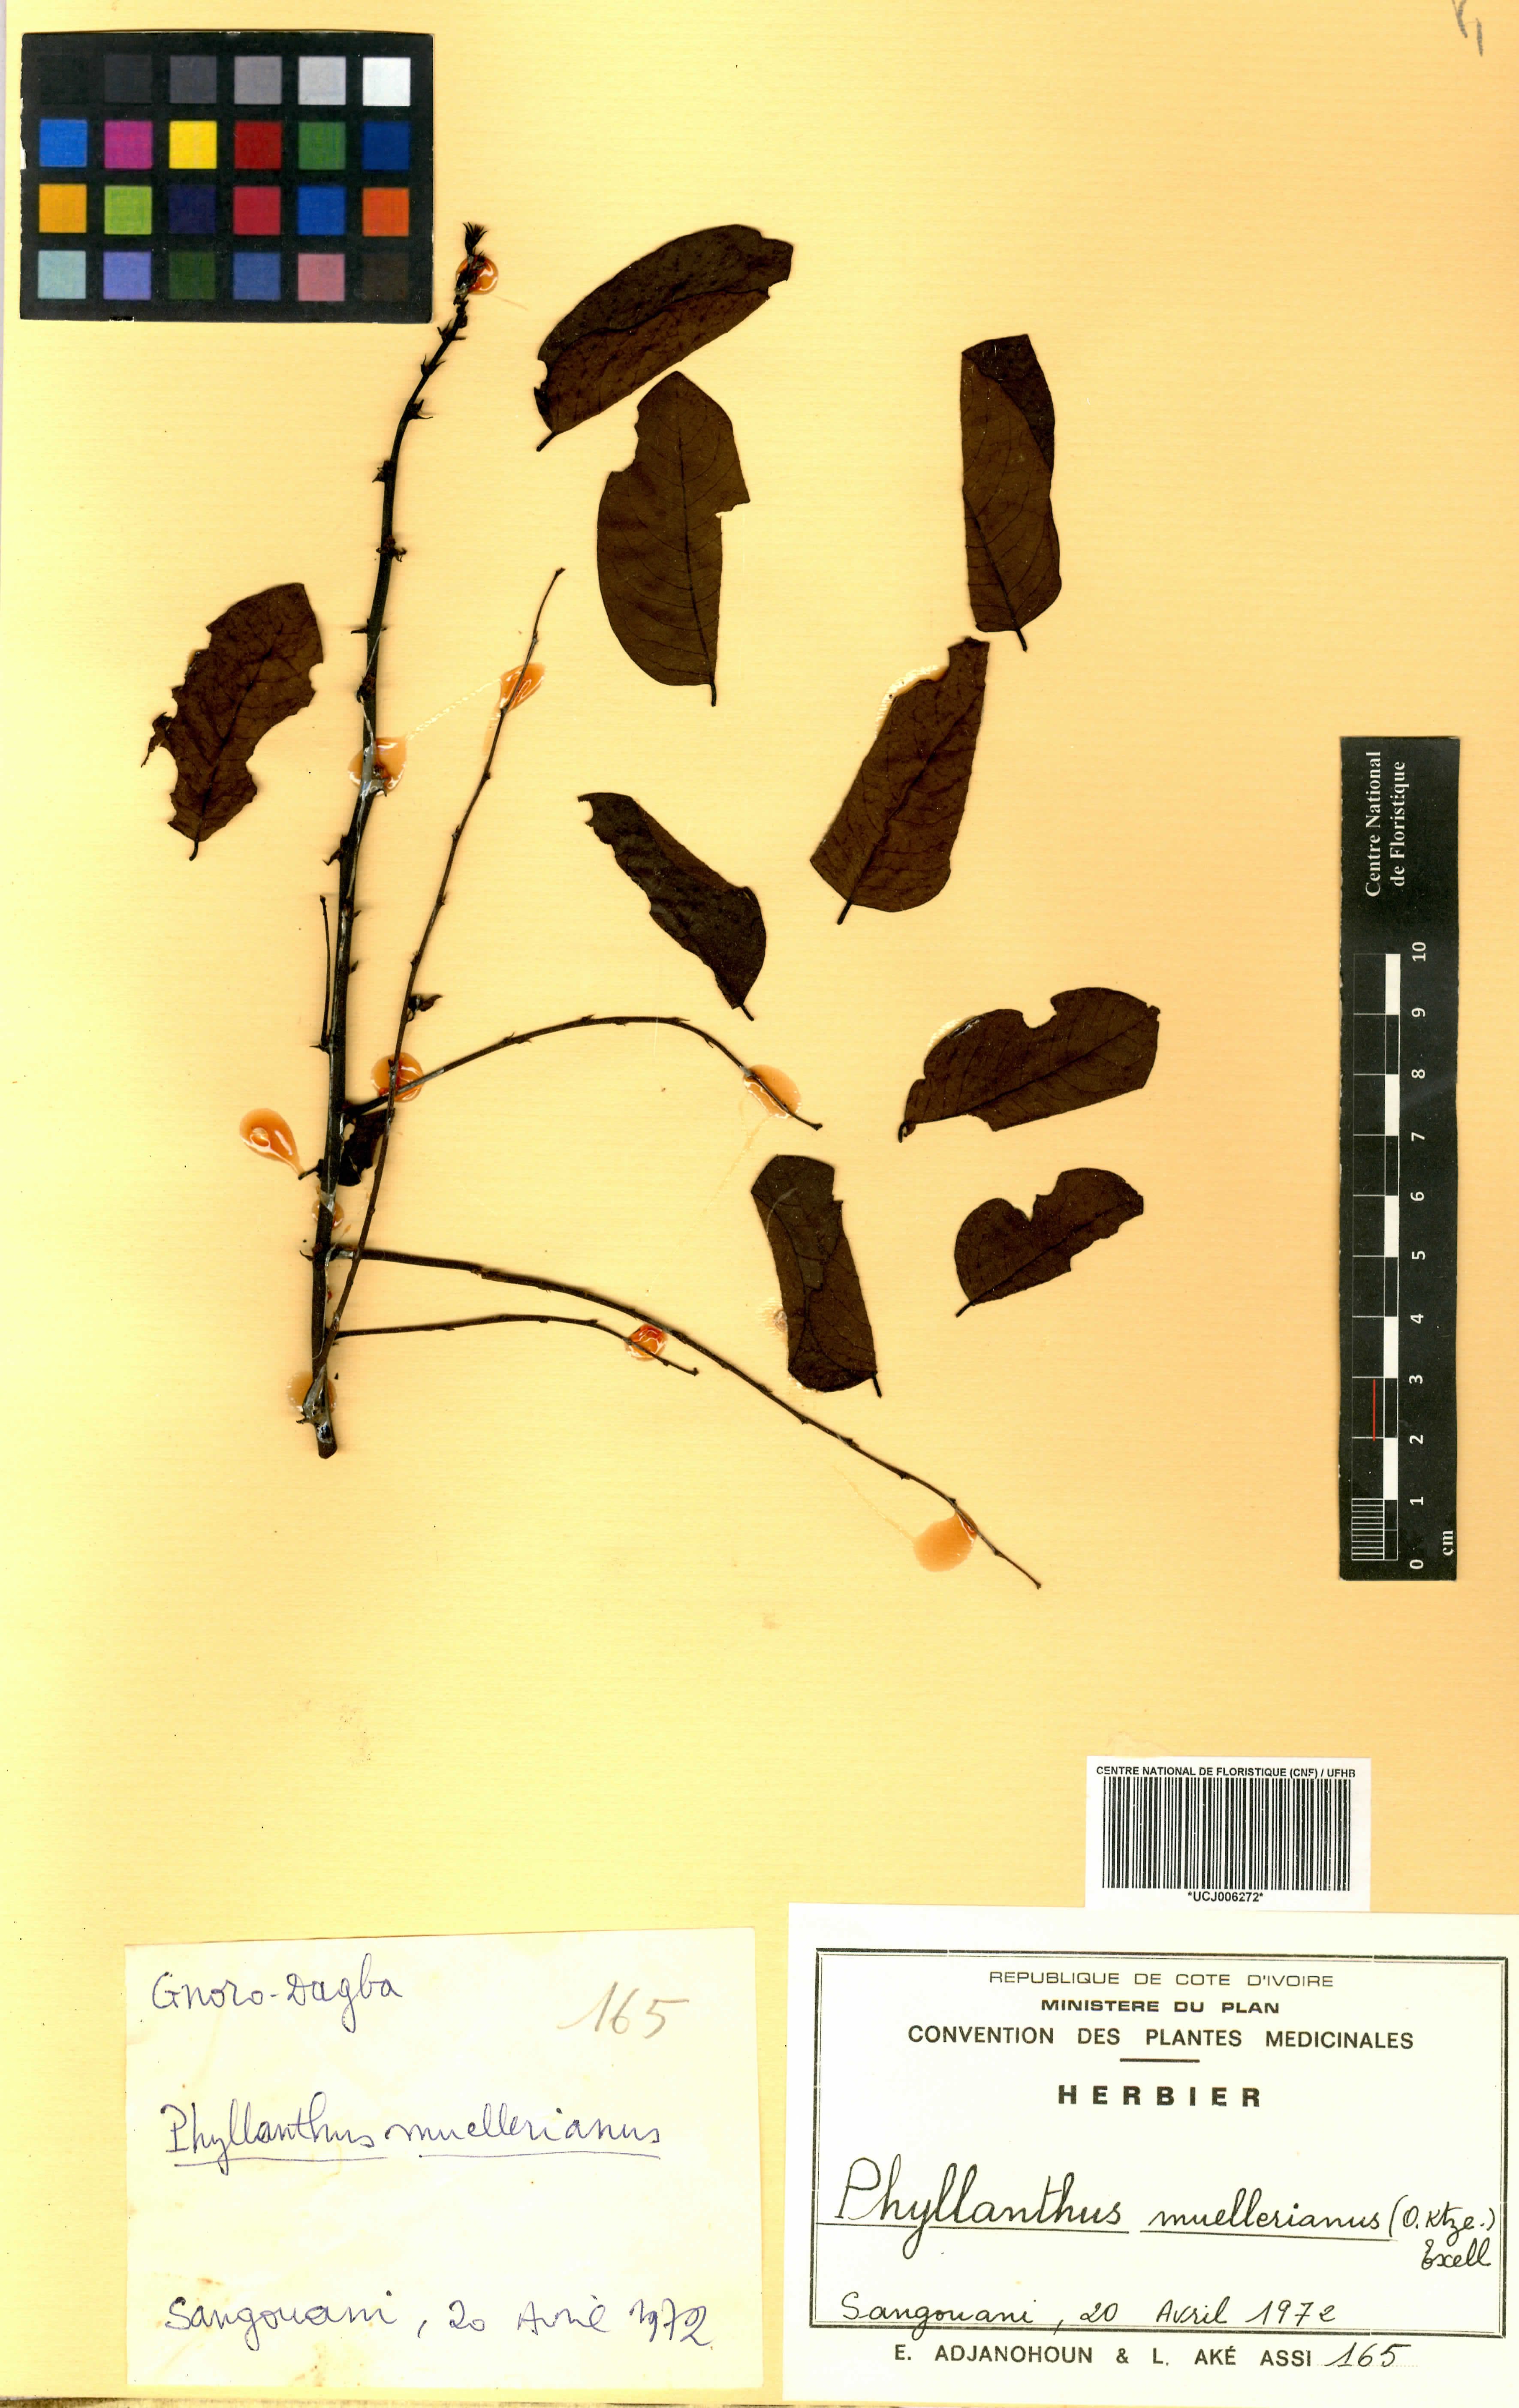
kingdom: Plantae
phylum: Tracheophyta
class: Magnoliopsida
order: Malpighiales
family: Phyllanthaceae
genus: Phyllanthus
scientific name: Phyllanthus muellerianus
